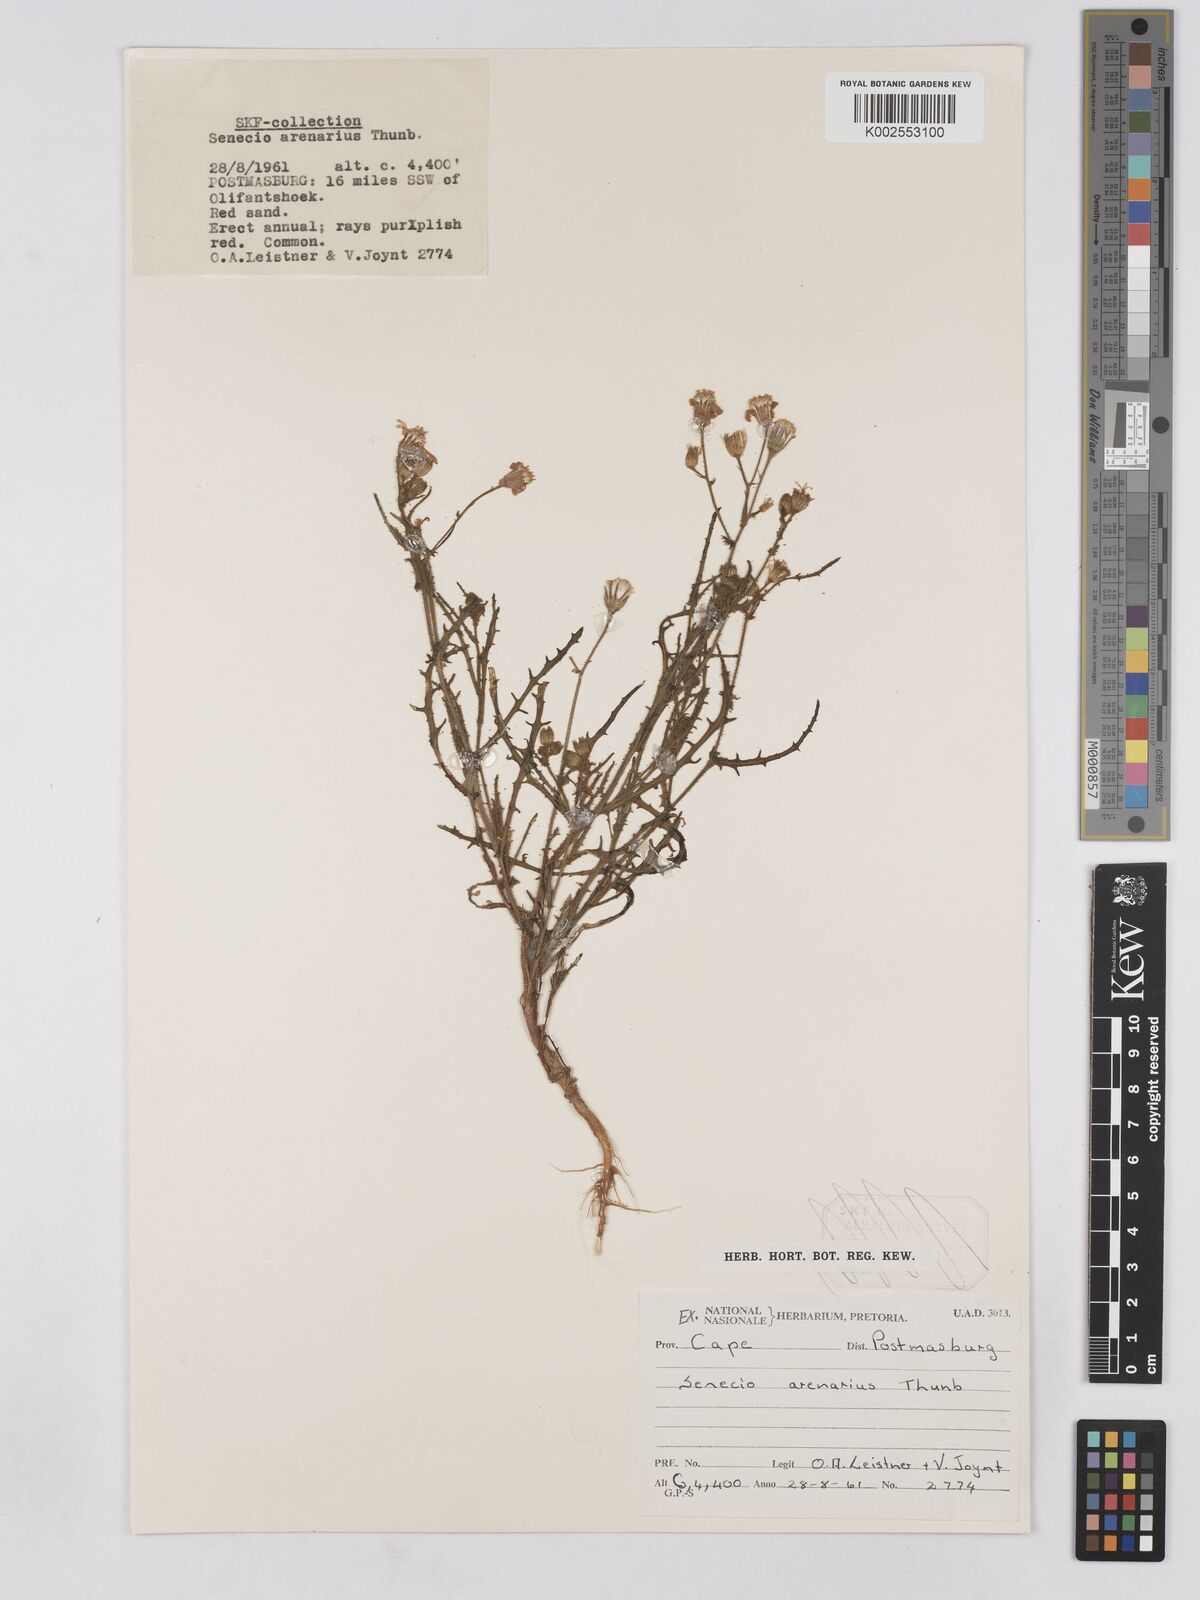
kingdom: Plantae
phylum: Tracheophyta
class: Magnoliopsida
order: Asterales
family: Asteraceae
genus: Senecio
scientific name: Senecio arenarius
